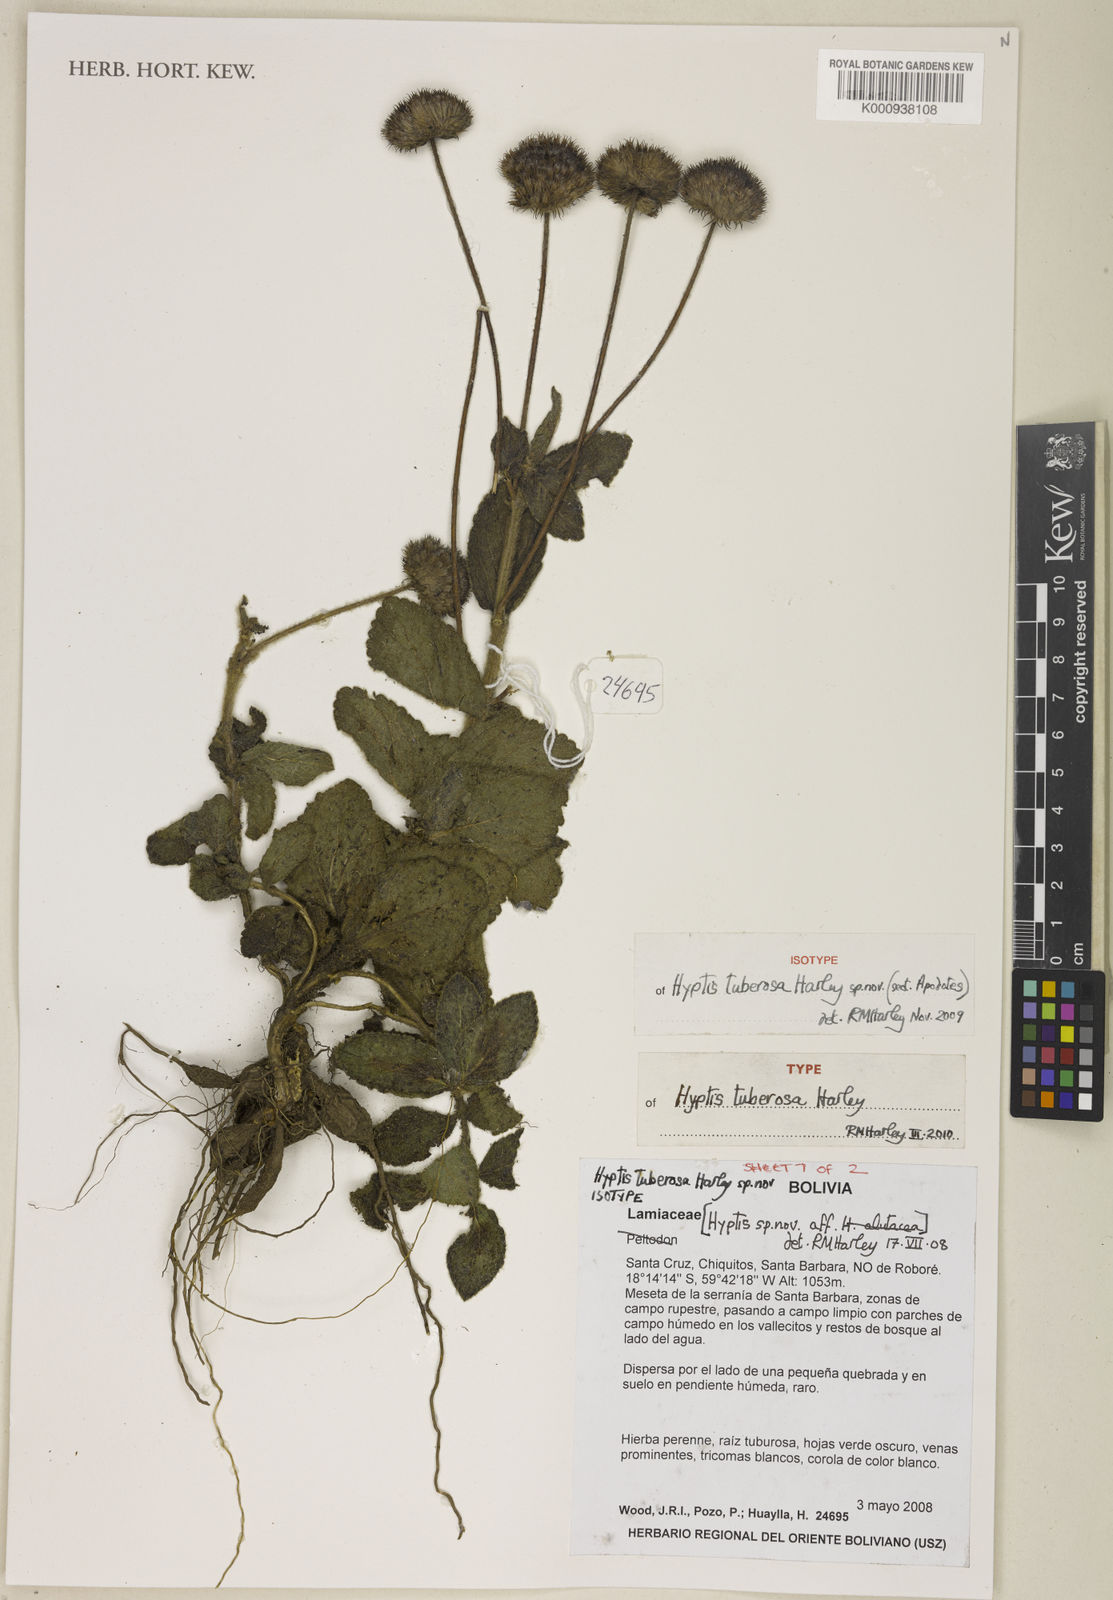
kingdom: Plantae
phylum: Tracheophyta
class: Magnoliopsida
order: Lamiales
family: Lamiaceae
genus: Hyptis
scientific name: Hyptis tuberosa
